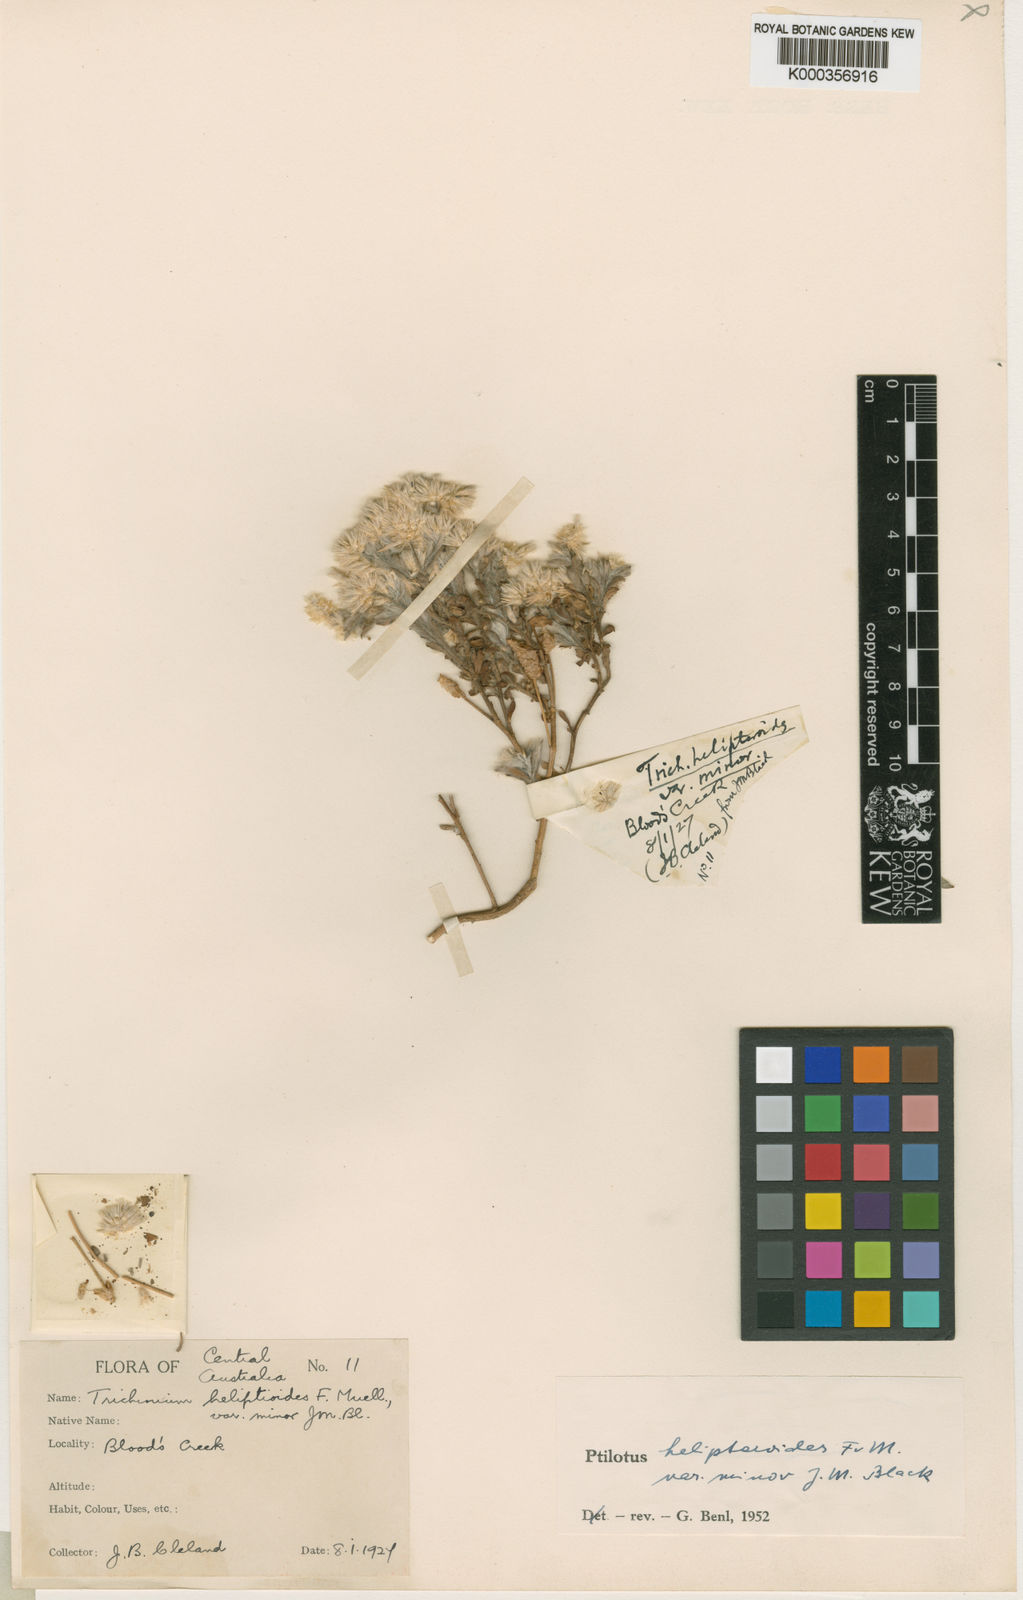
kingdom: Plantae
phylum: Tracheophyta
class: Magnoliopsida
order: Caryophyllales
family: Amaranthaceae
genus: Ptilotus
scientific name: Ptilotus
